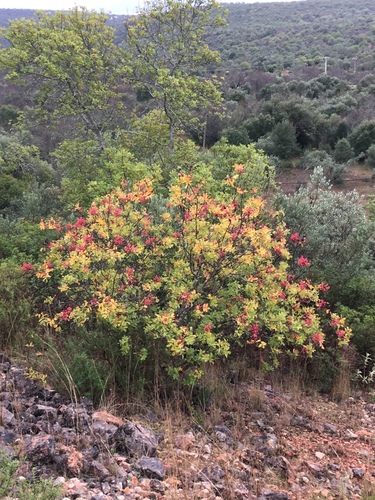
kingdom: Plantae
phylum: Tracheophyta
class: Magnoliopsida
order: Sapindales
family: Anacardiaceae
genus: Pistacia
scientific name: Pistacia terebinthus
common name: Terebinth
